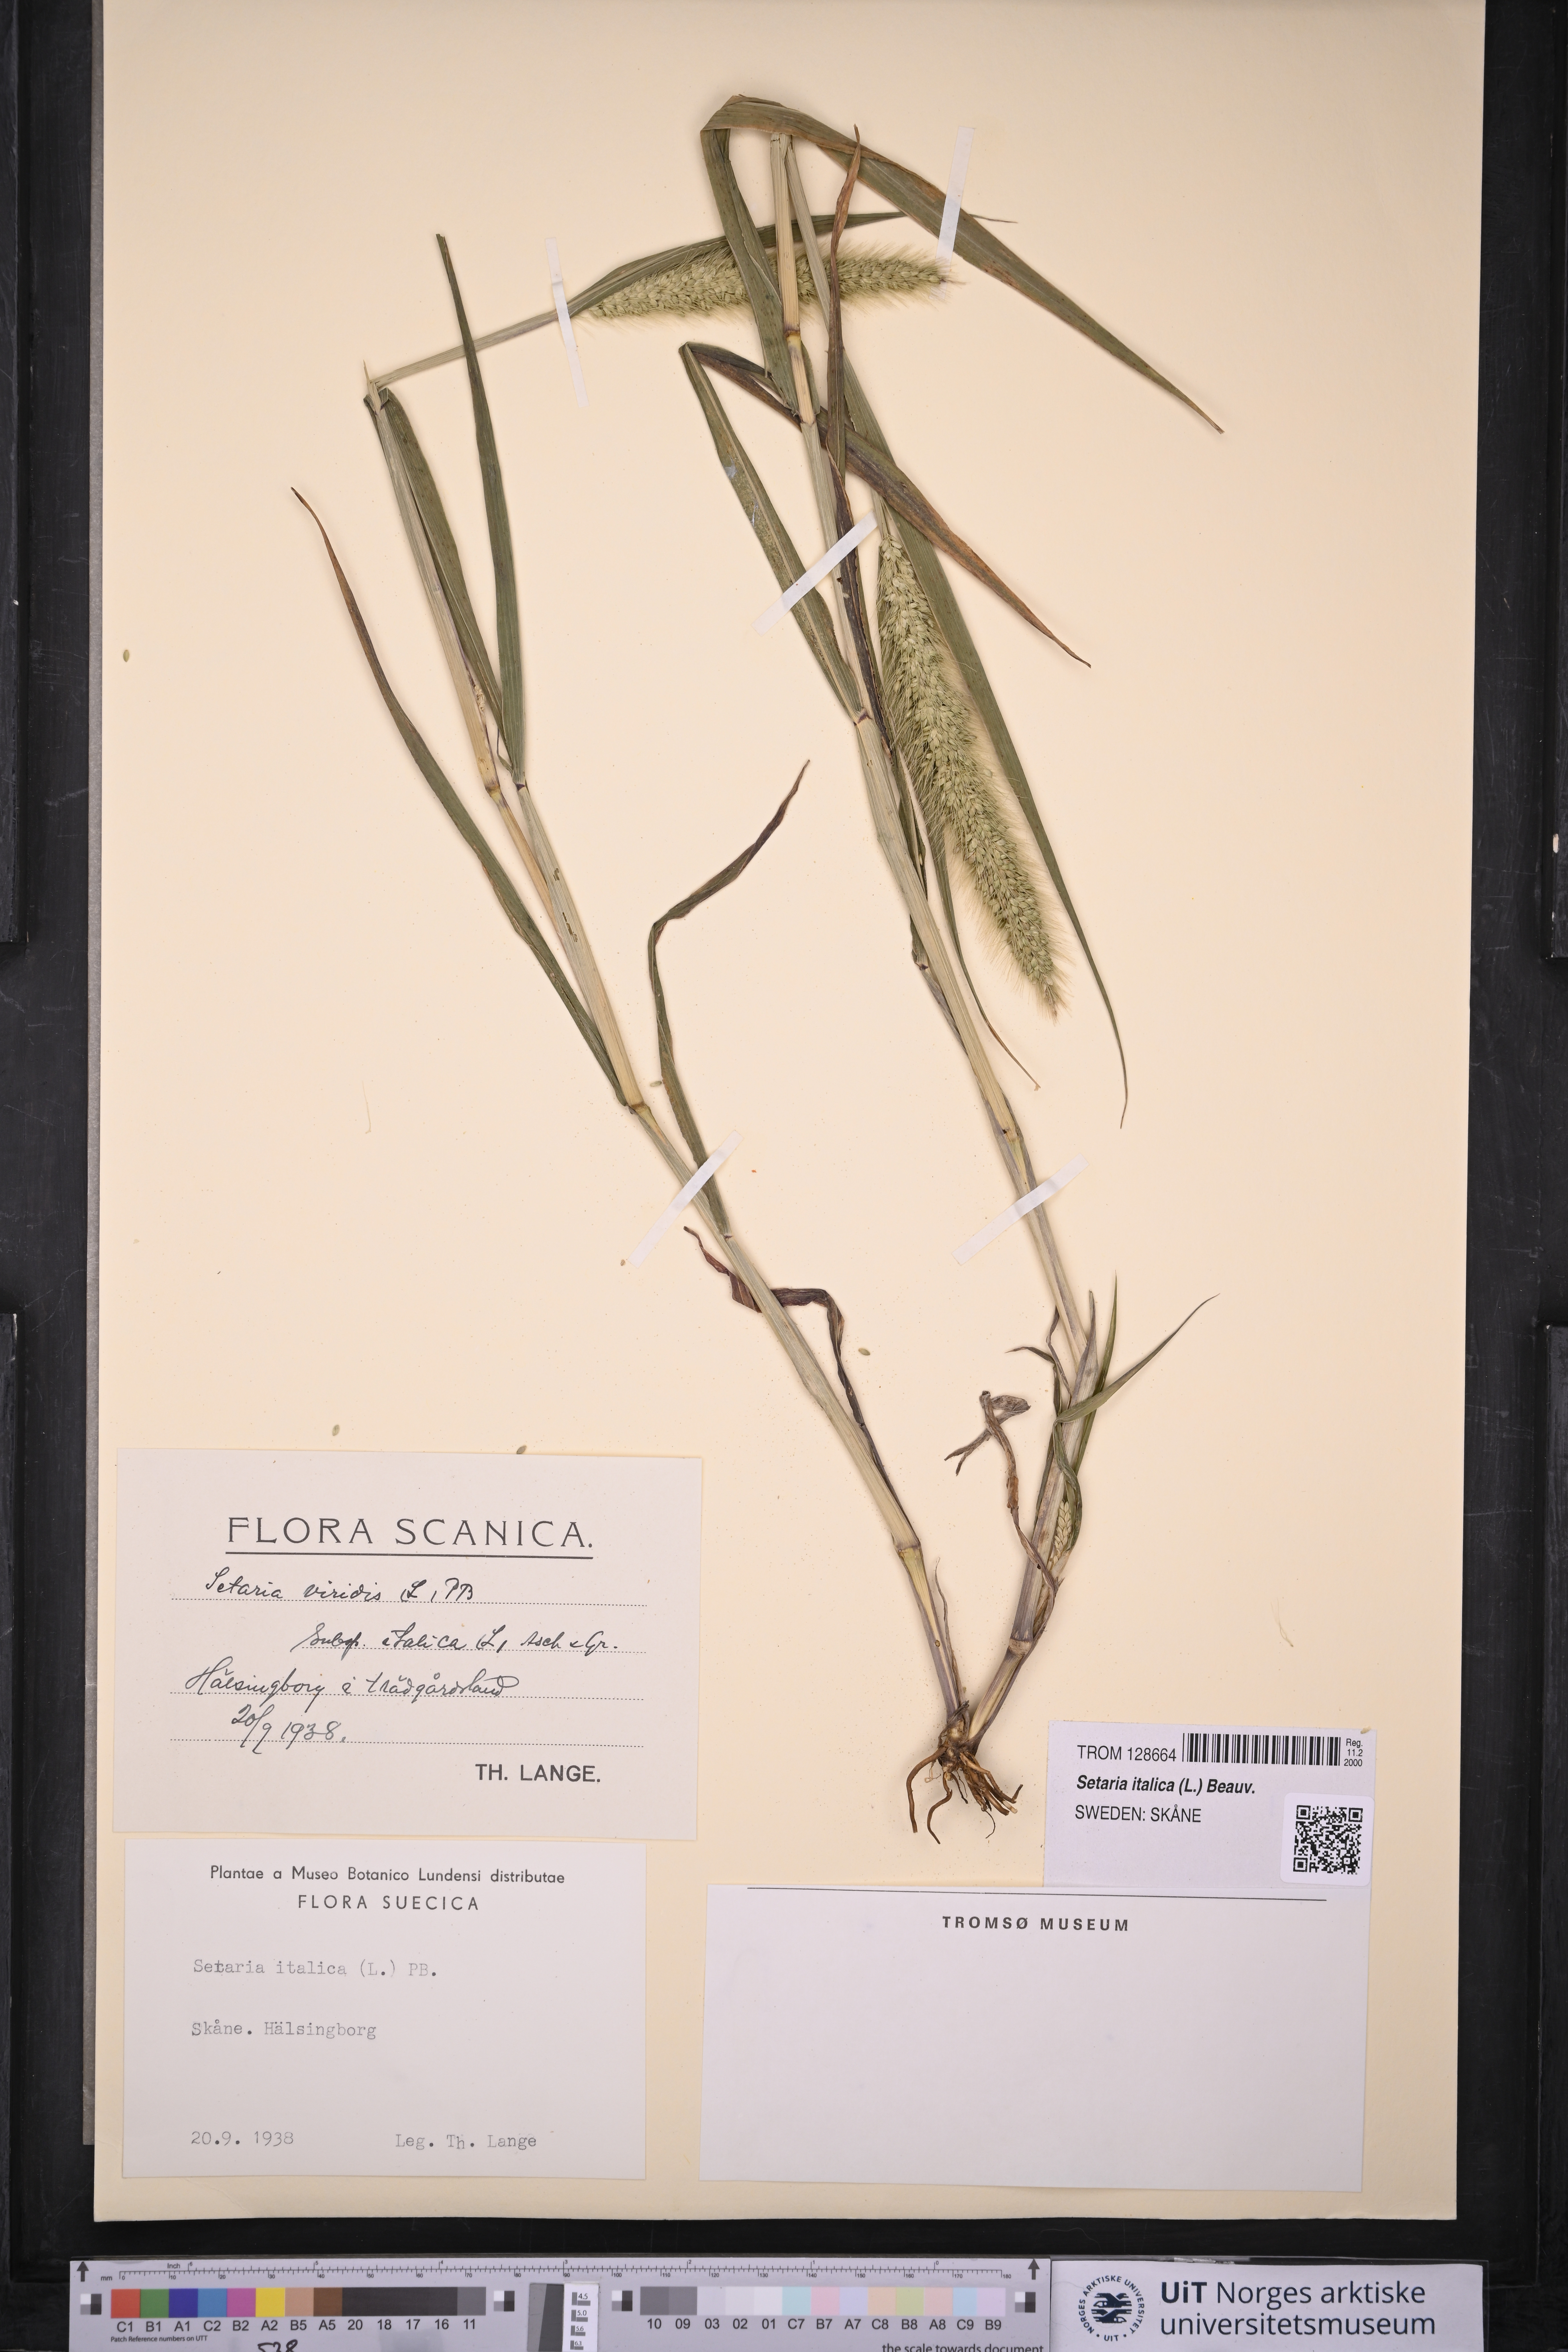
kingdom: Plantae
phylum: Tracheophyta
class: Liliopsida
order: Poales
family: Poaceae
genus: Setaria
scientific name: Setaria italica
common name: Foxtail bristle-grass
